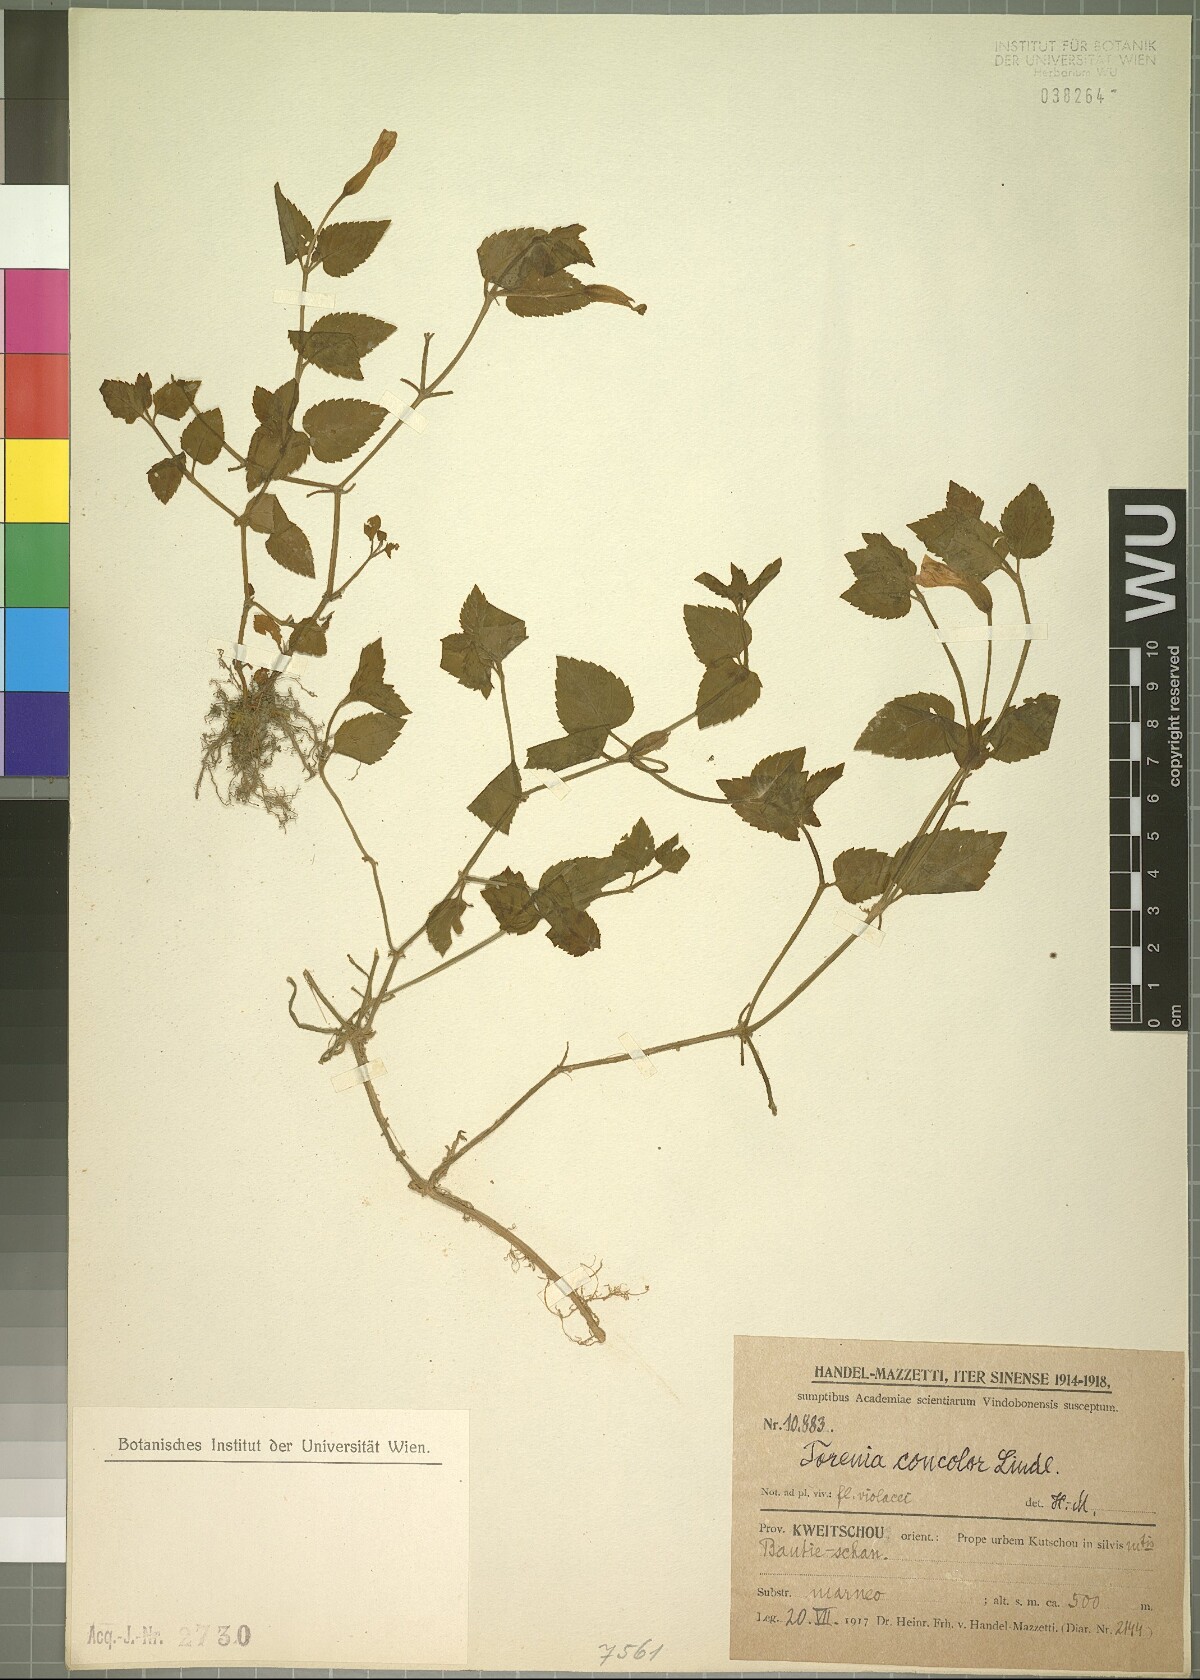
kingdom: Plantae
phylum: Tracheophyta
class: Magnoliopsida
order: Lamiales
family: Linderniaceae
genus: Torenia
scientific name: Torenia concolor
